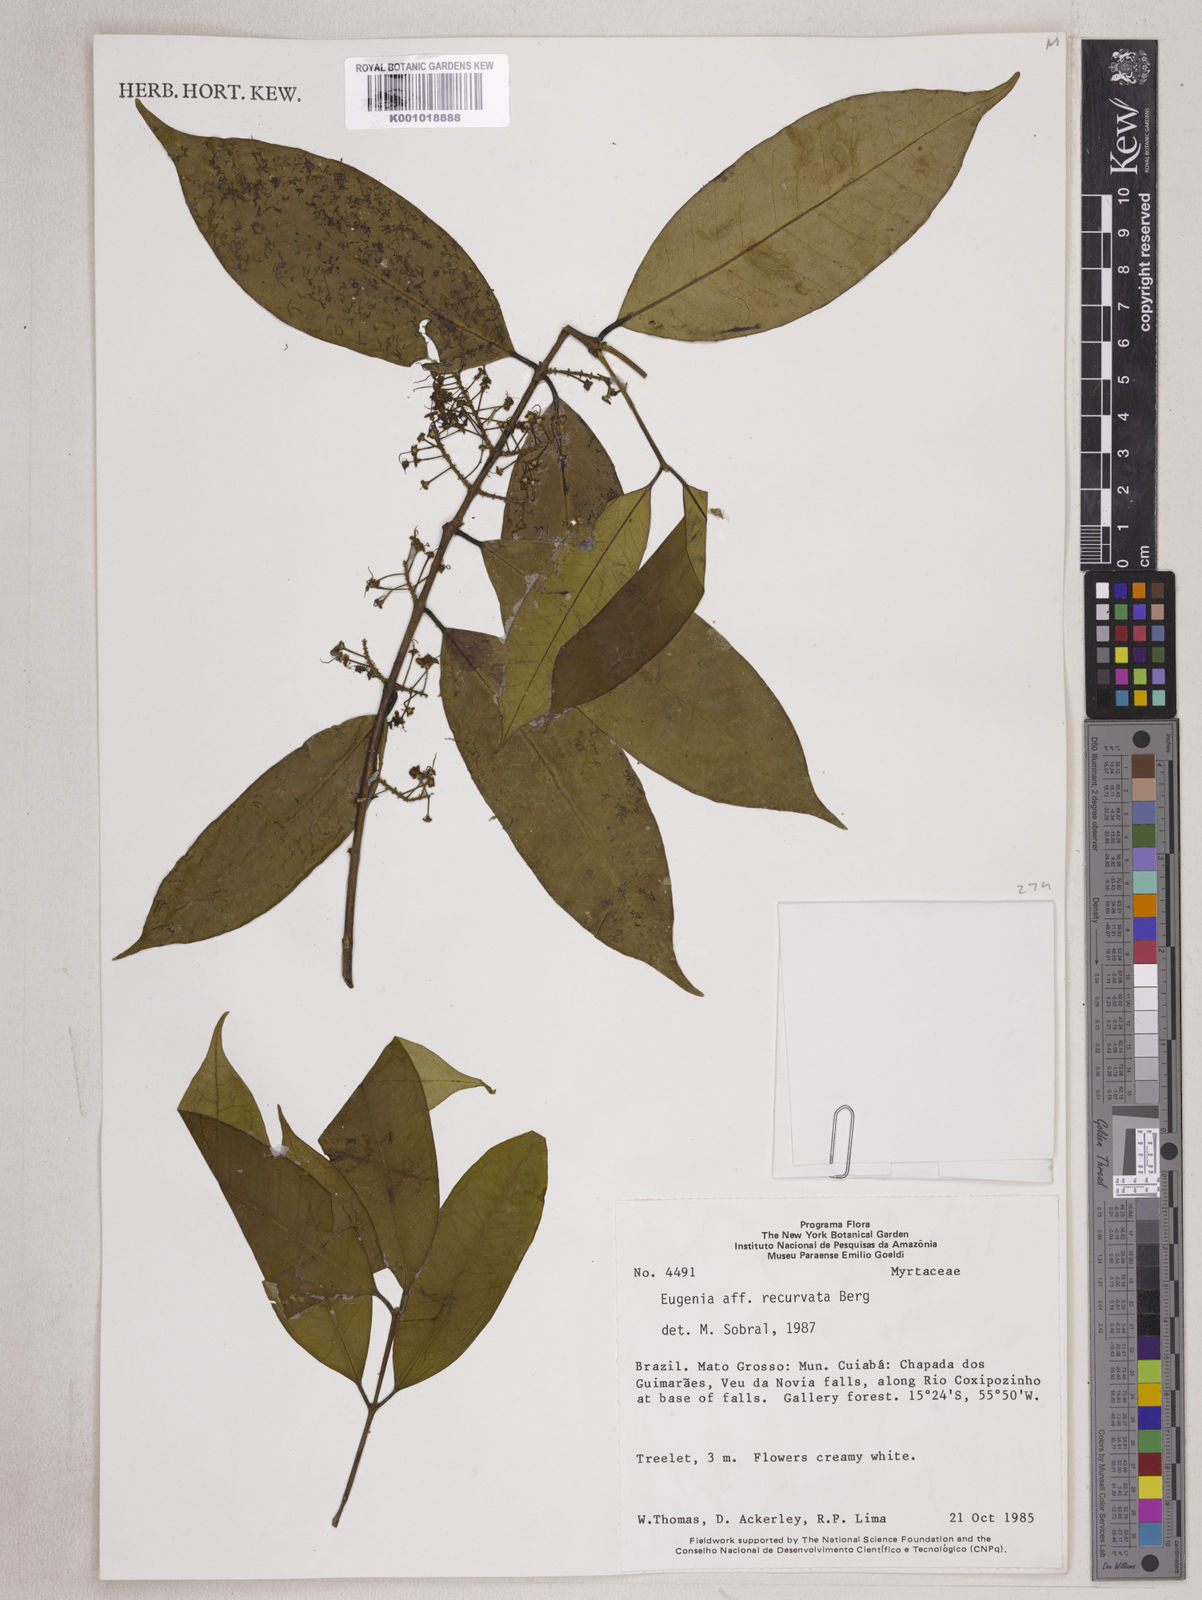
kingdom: Plantae
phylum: Tracheophyta
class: Magnoliopsida
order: Myrtales
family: Myrtaceae
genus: Eugenia
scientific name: Eugenia densiracemosa
